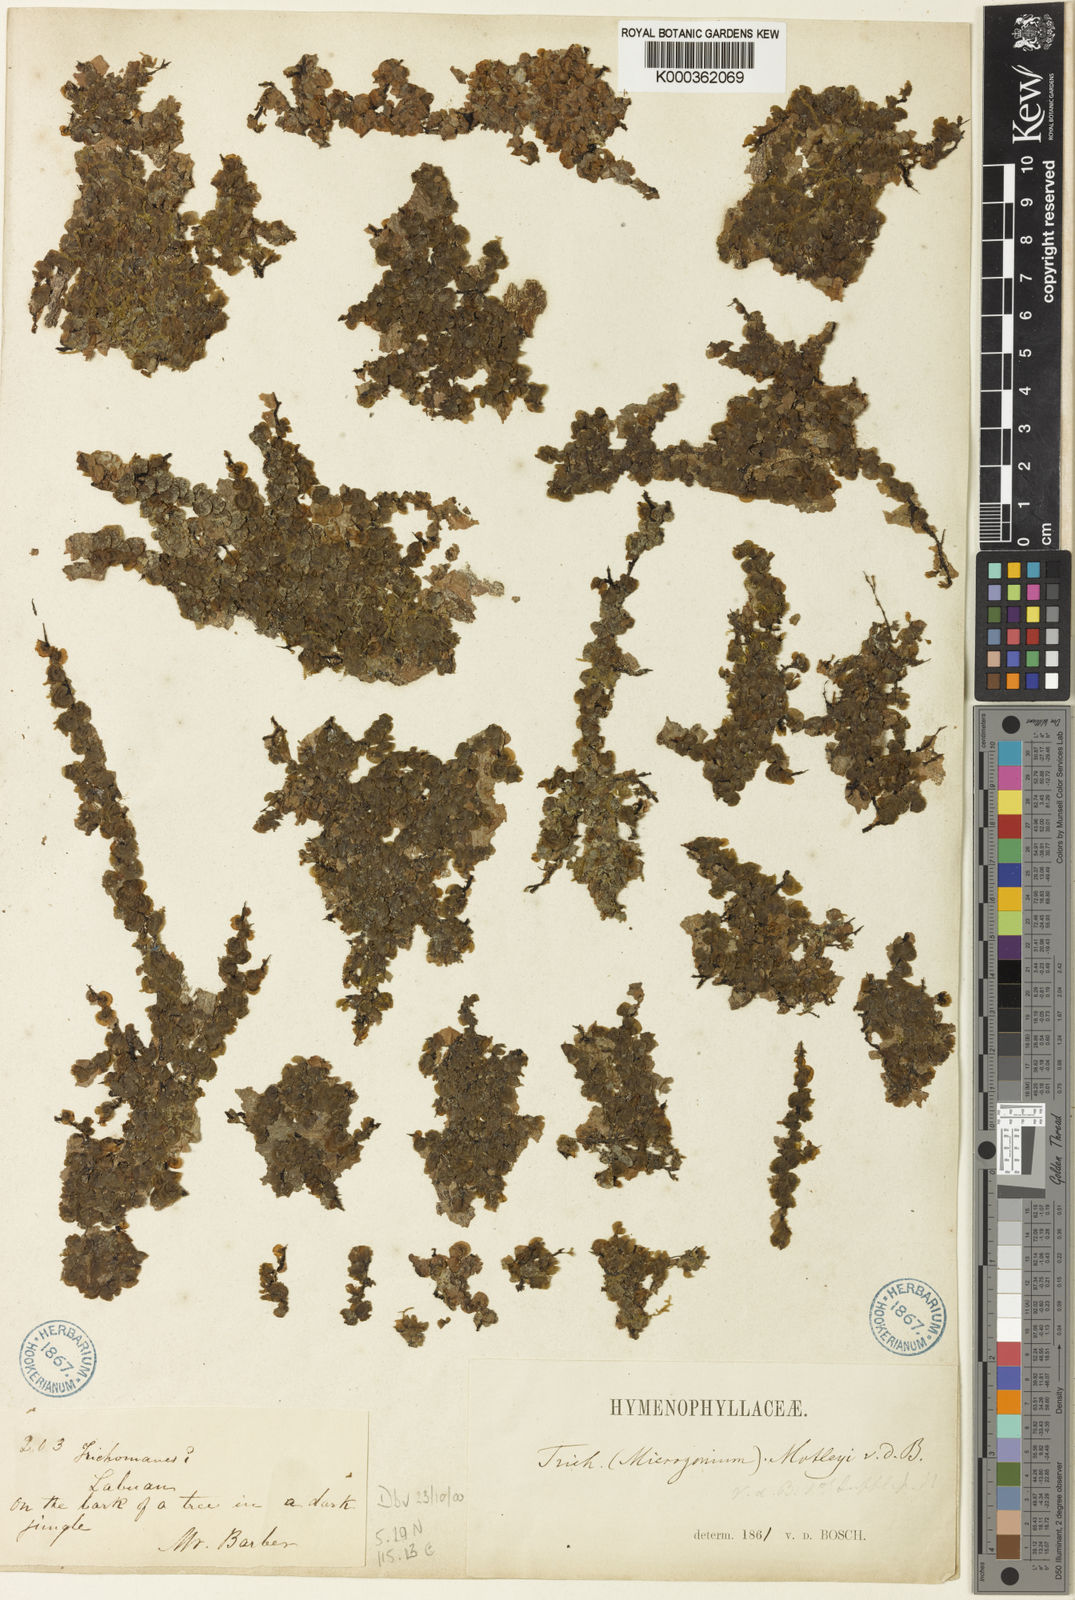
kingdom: Plantae
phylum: Tracheophyta
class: Polypodiopsida
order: Hymenophyllales
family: Hymenophyllaceae
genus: Didymoglossum
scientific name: Didymoglossum motleyi
